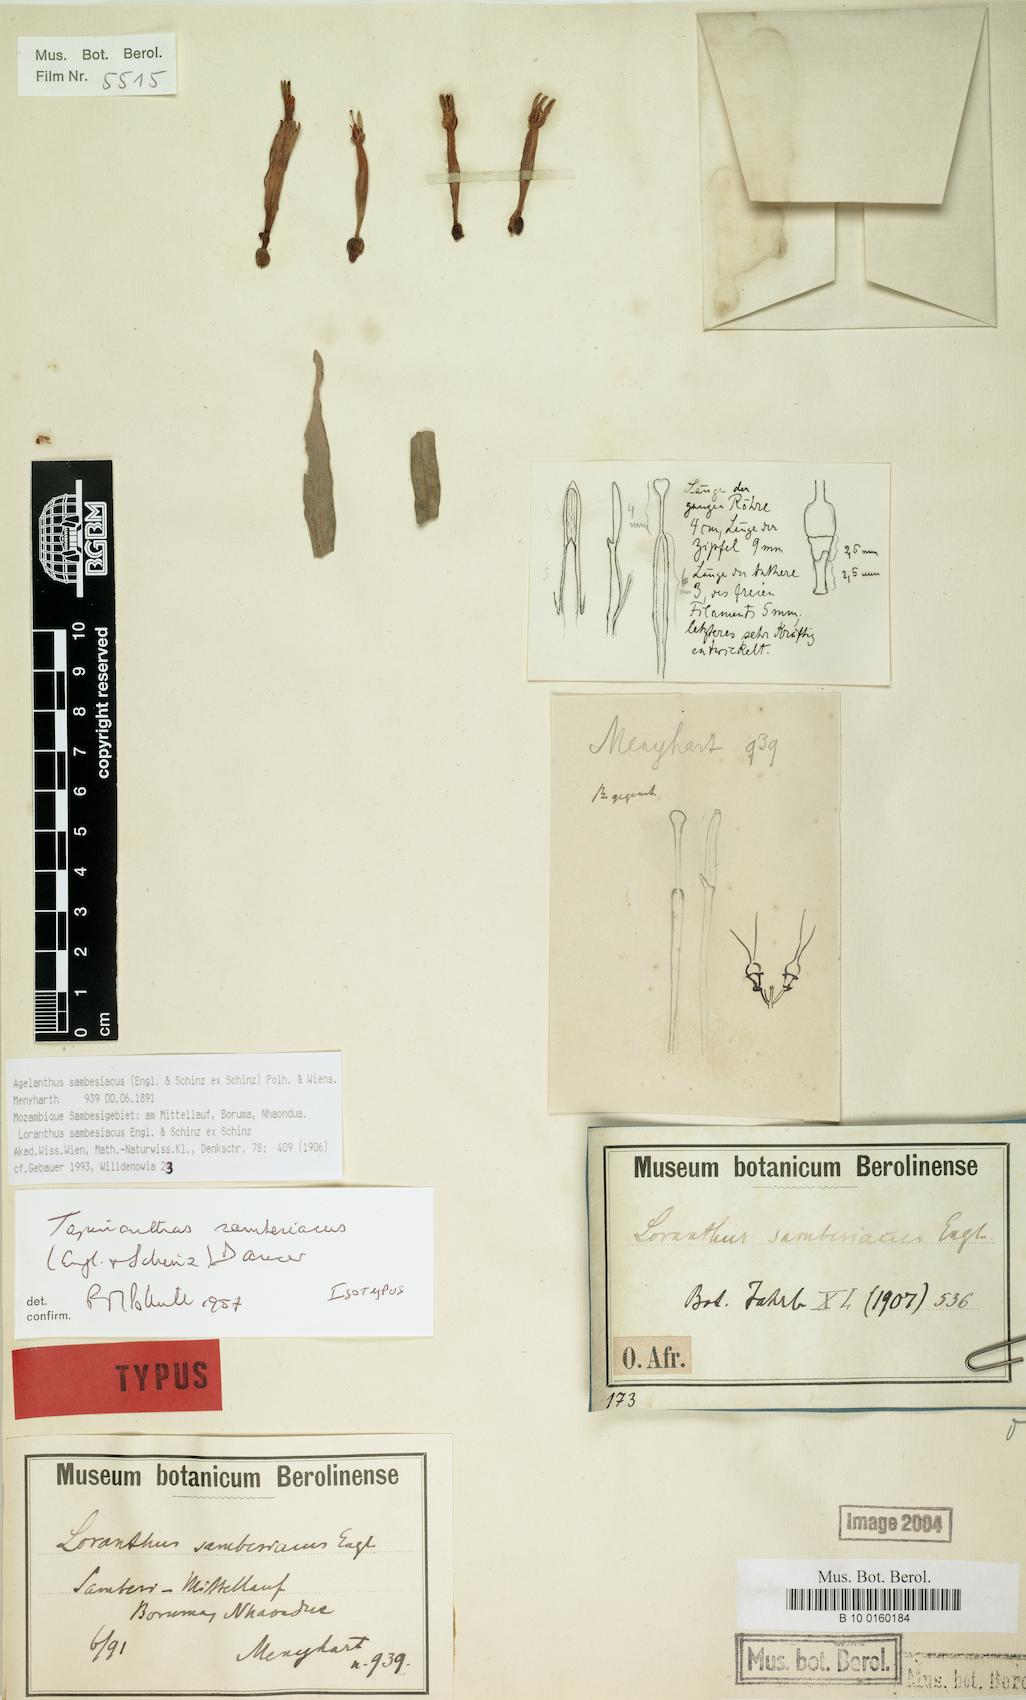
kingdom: Plantae
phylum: Tracheophyta
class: Magnoliopsida
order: Santalales
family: Loranthaceae
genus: Agelanthus
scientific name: Agelanthus sambesiacus
